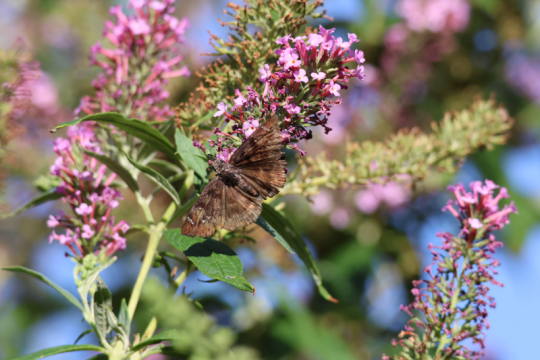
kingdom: Animalia
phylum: Arthropoda
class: Insecta
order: Lepidoptera
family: Hesperiidae
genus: Erynnis
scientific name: Erynnis meridianus
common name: Meridian Duskywing
